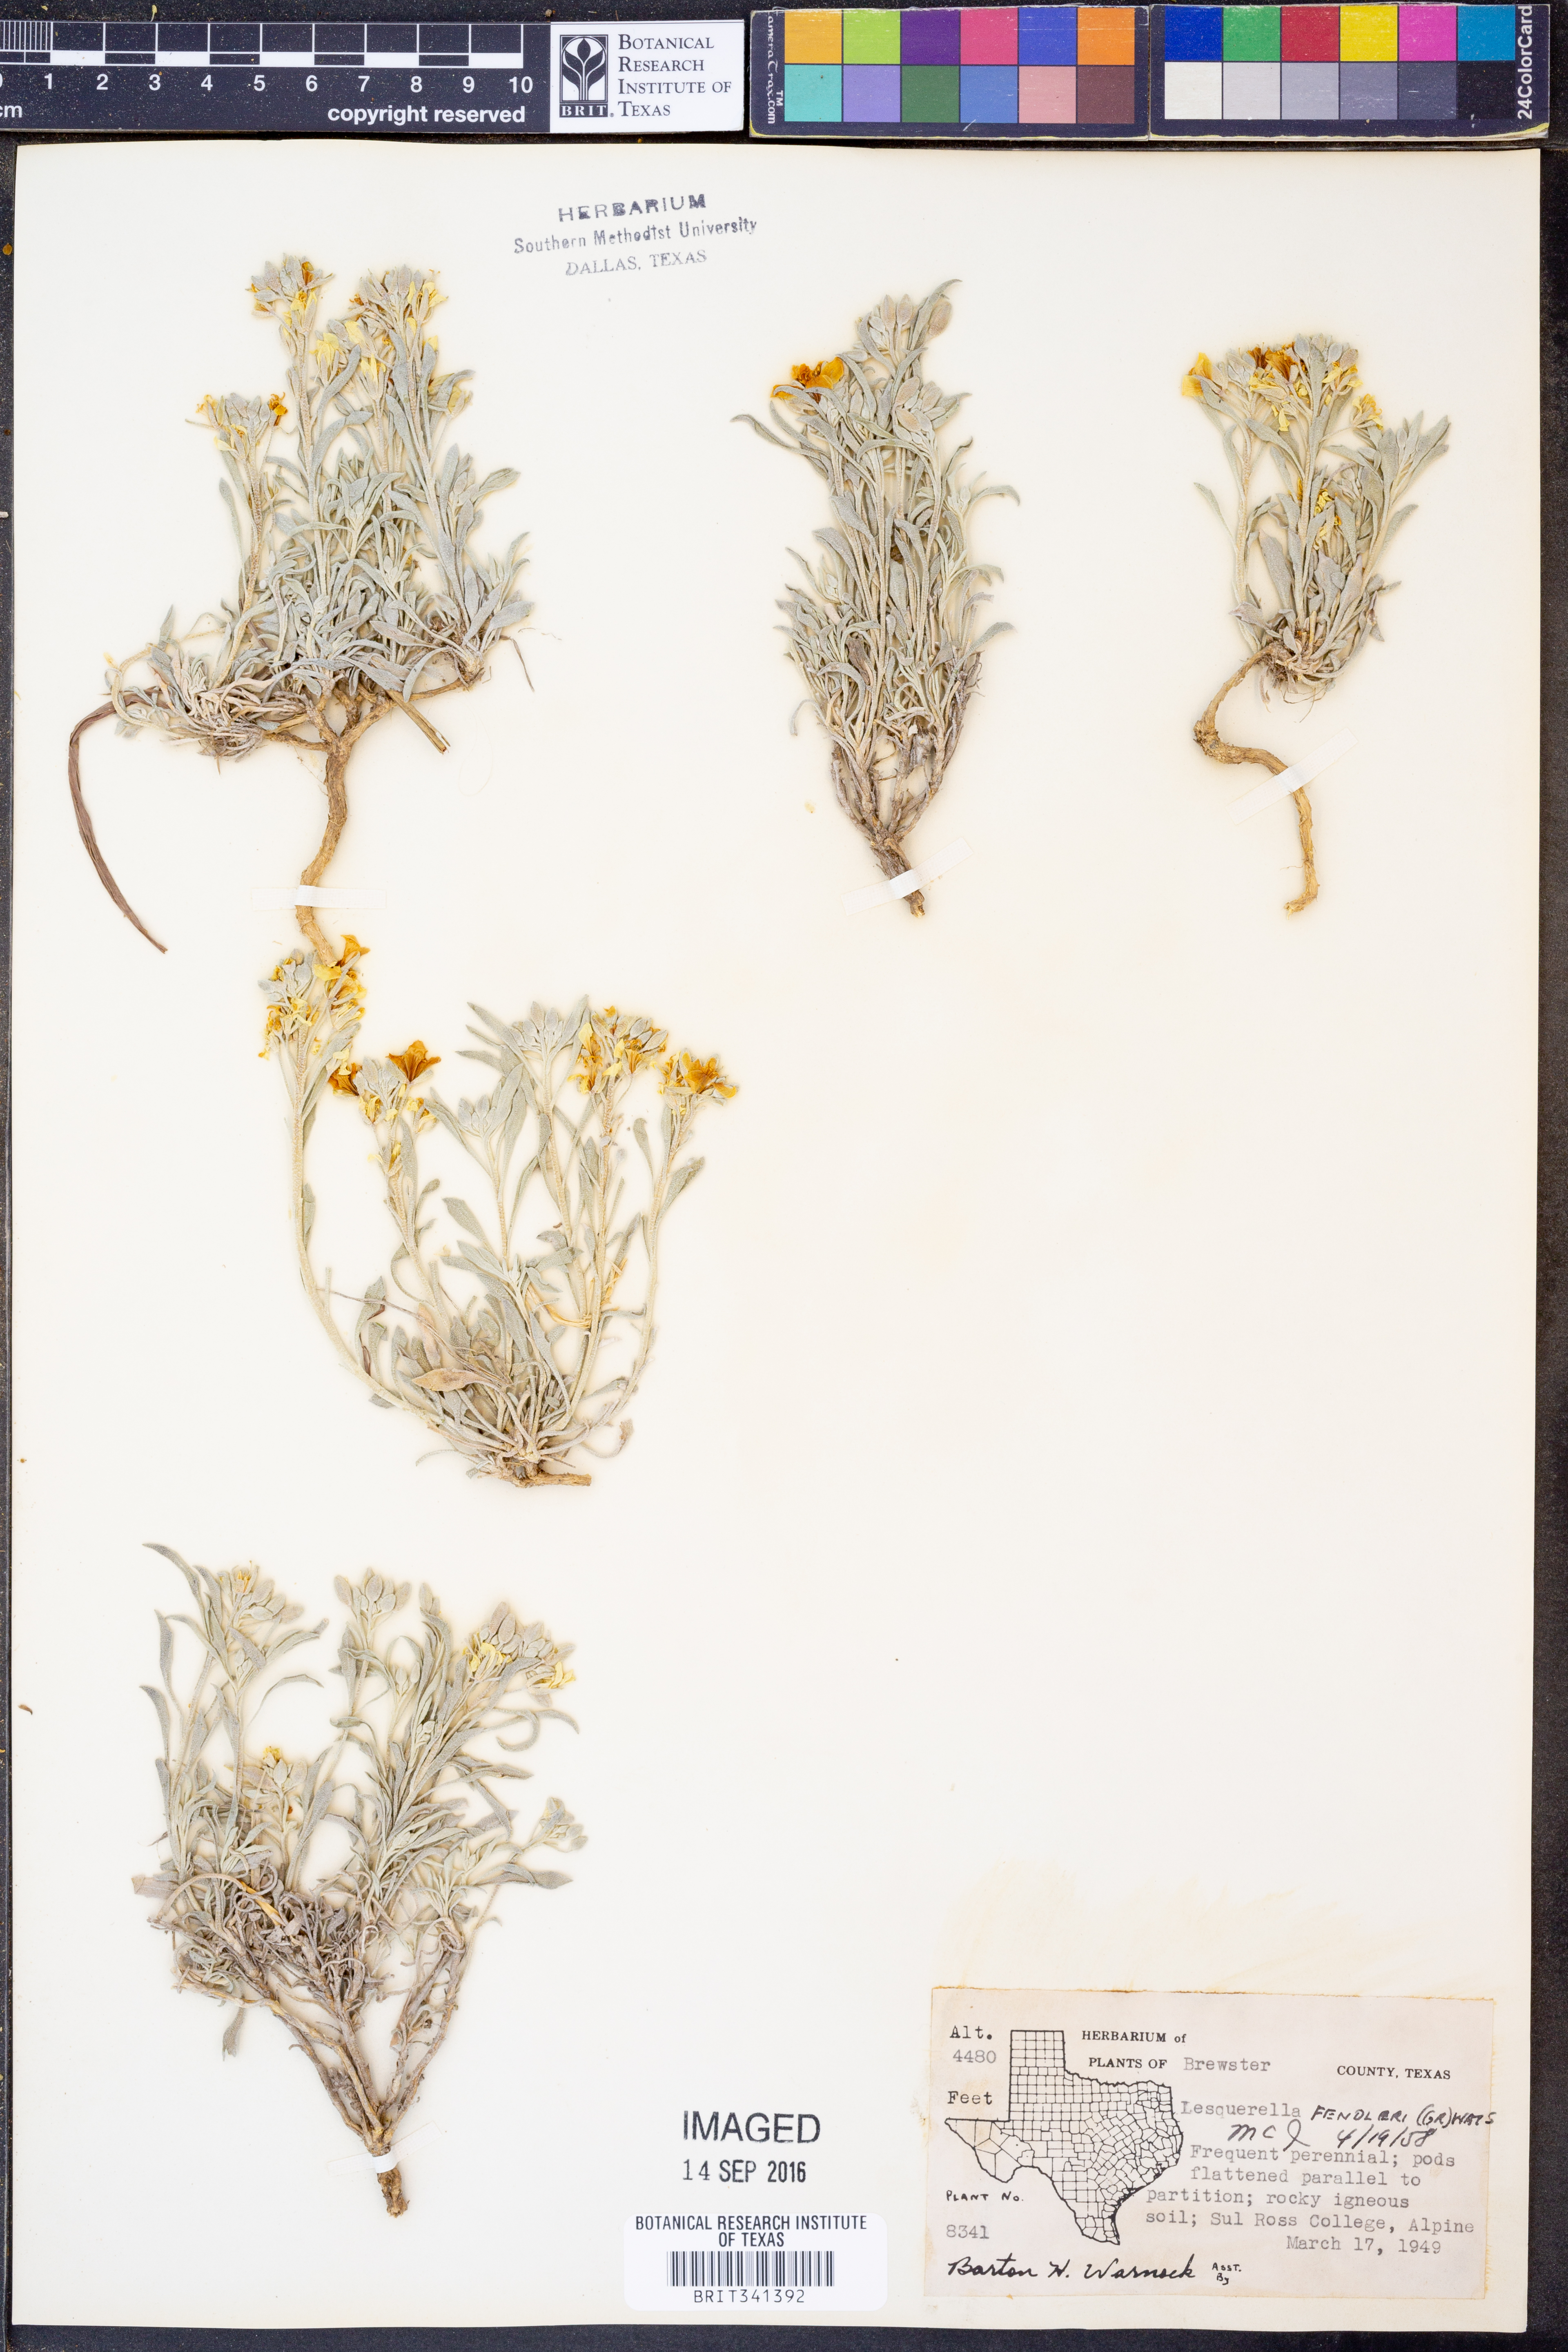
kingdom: Plantae
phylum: Tracheophyta
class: Magnoliopsida
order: Brassicales
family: Brassicaceae
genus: Physaria
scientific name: Physaria fendleri
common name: Fendler's bladderpod
